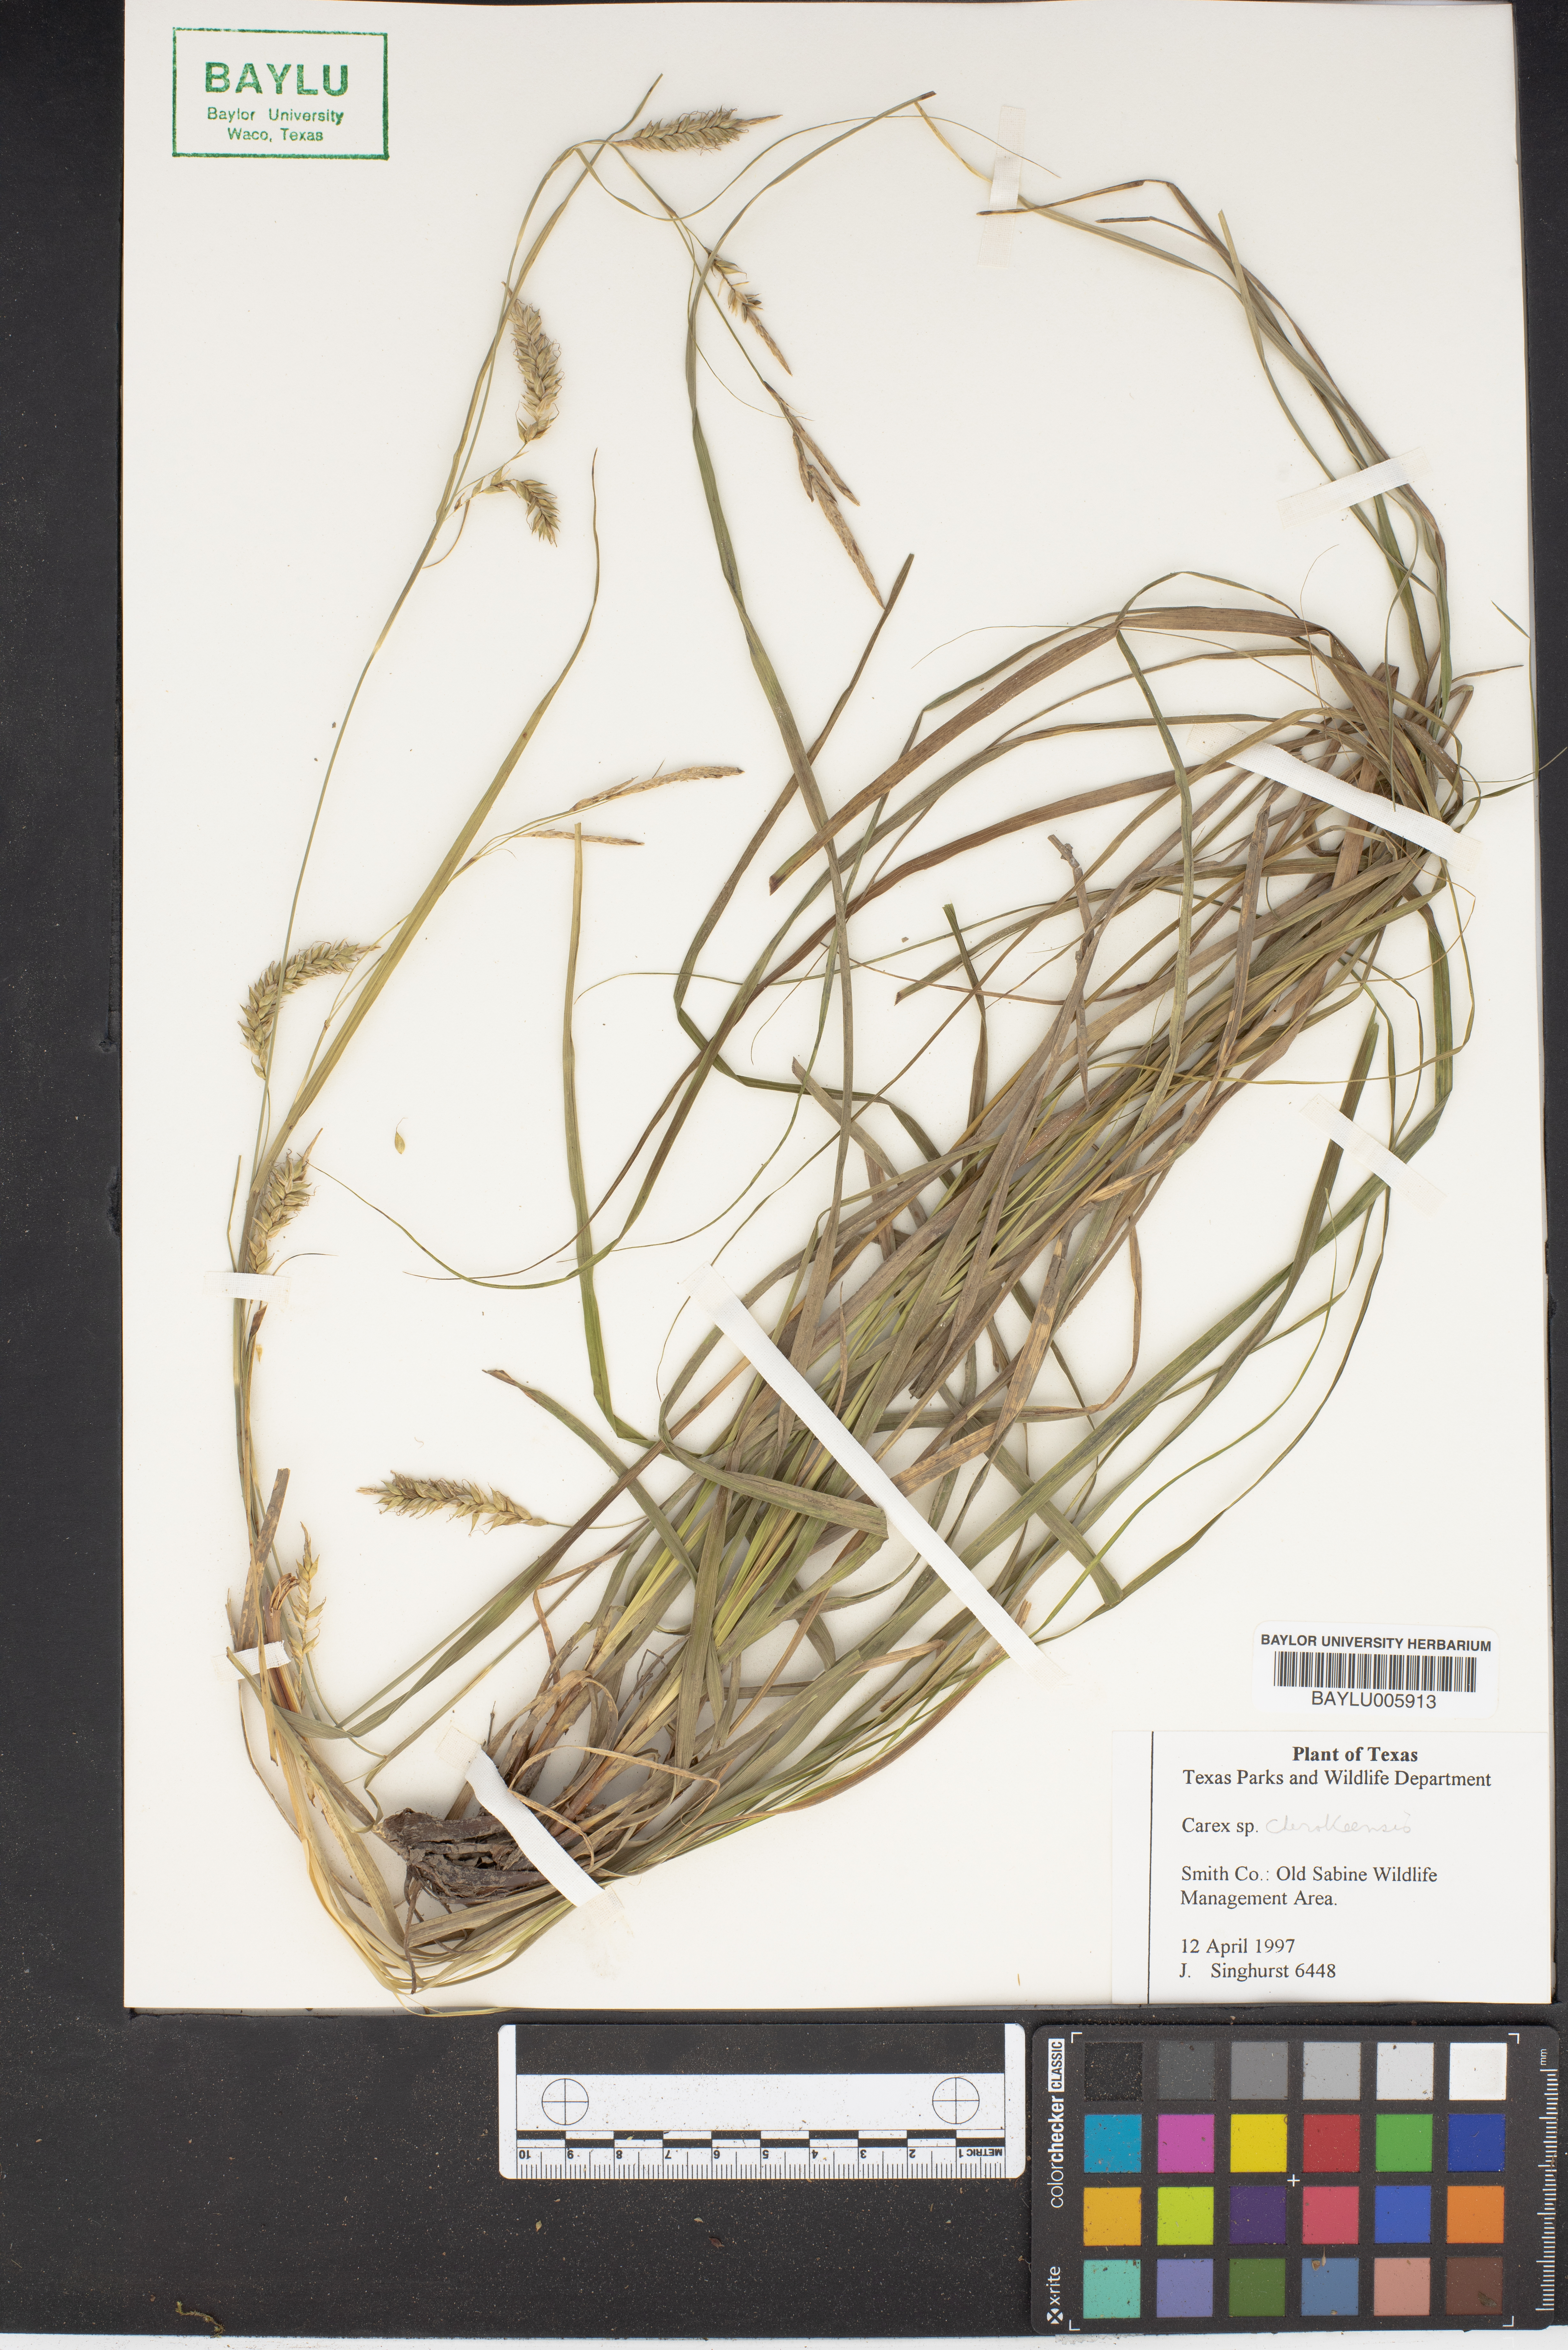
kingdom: Plantae
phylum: Tracheophyta
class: Liliopsida
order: Poales
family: Cyperaceae
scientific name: Cyperaceae
